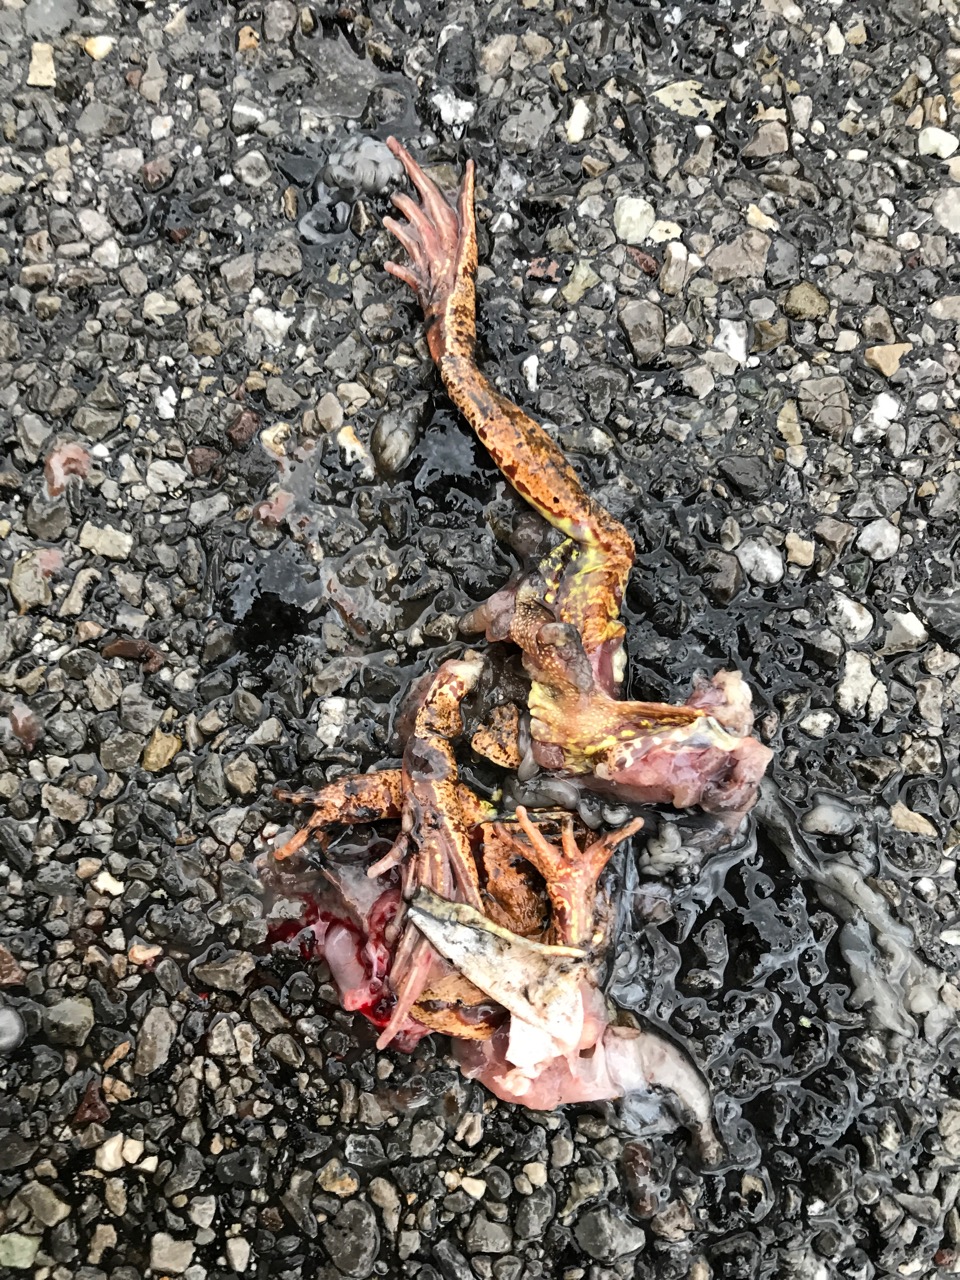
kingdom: Animalia
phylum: Chordata
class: Amphibia
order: Anura
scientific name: Anura
